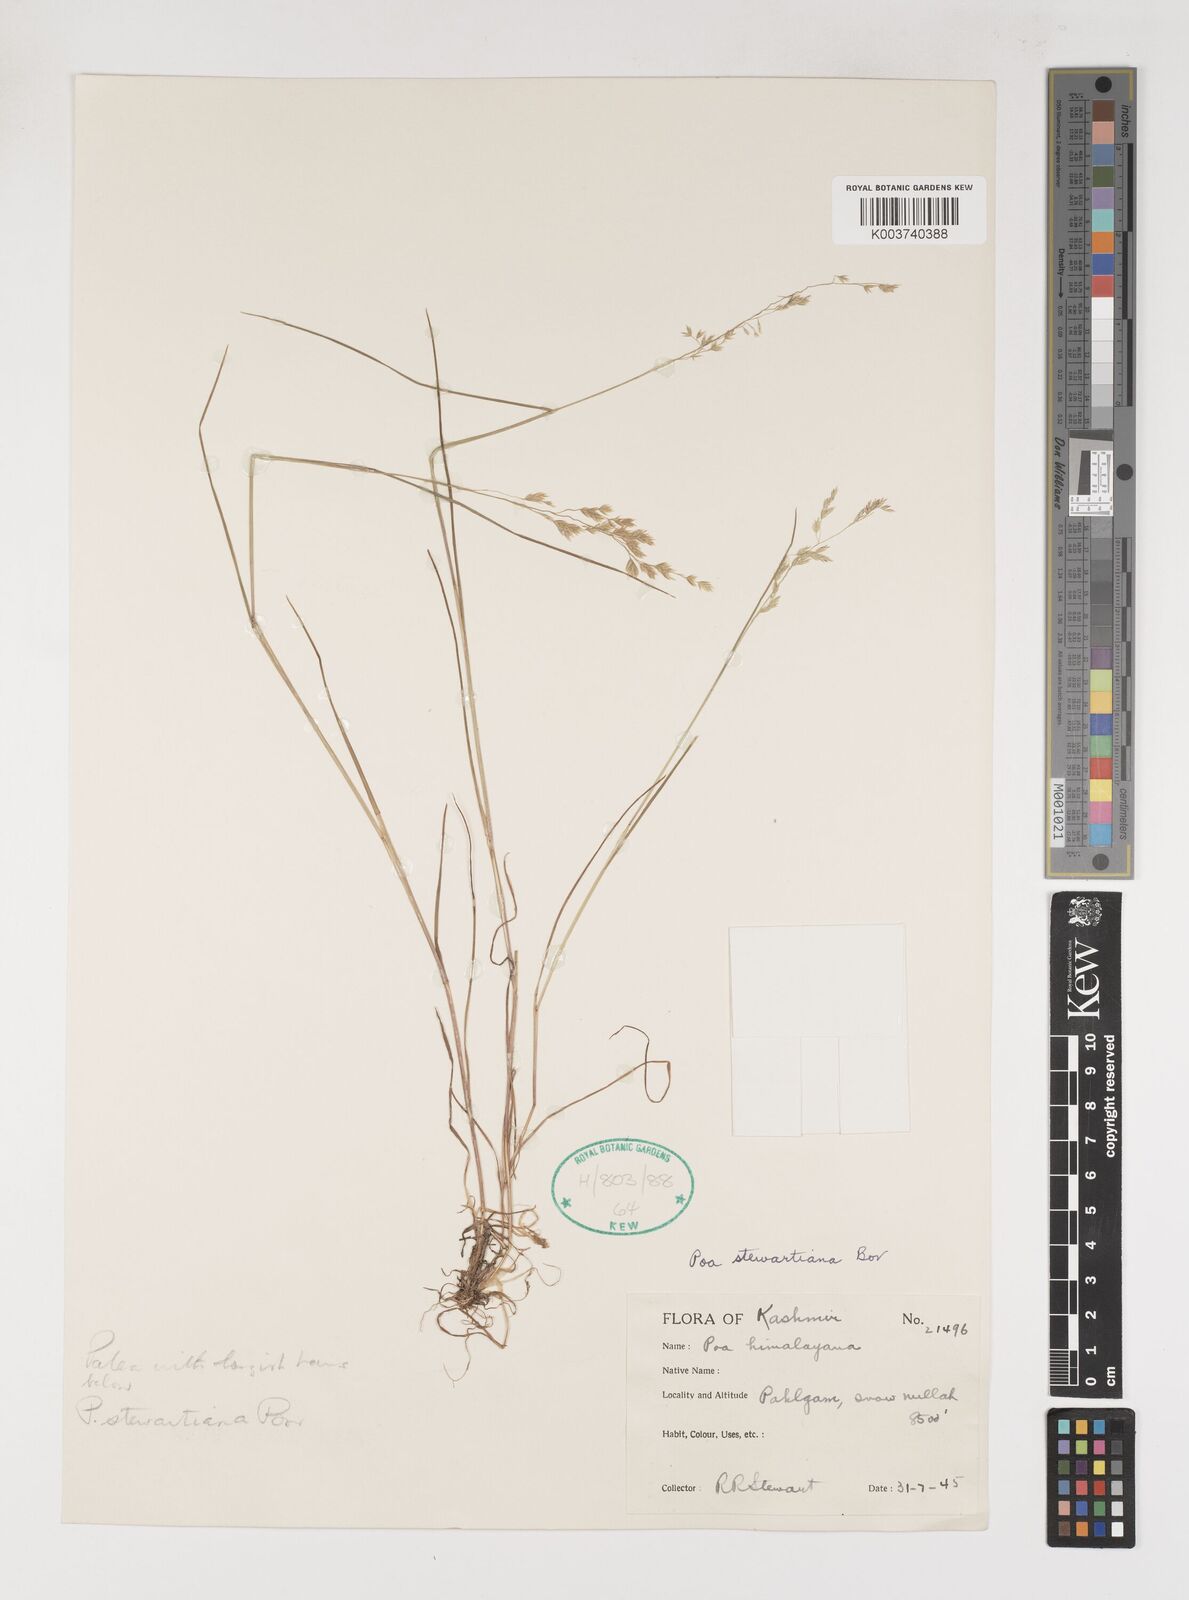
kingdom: Plantae
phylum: Tracheophyta
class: Liliopsida
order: Poales
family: Poaceae
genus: Poa
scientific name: Poa stewartiana
